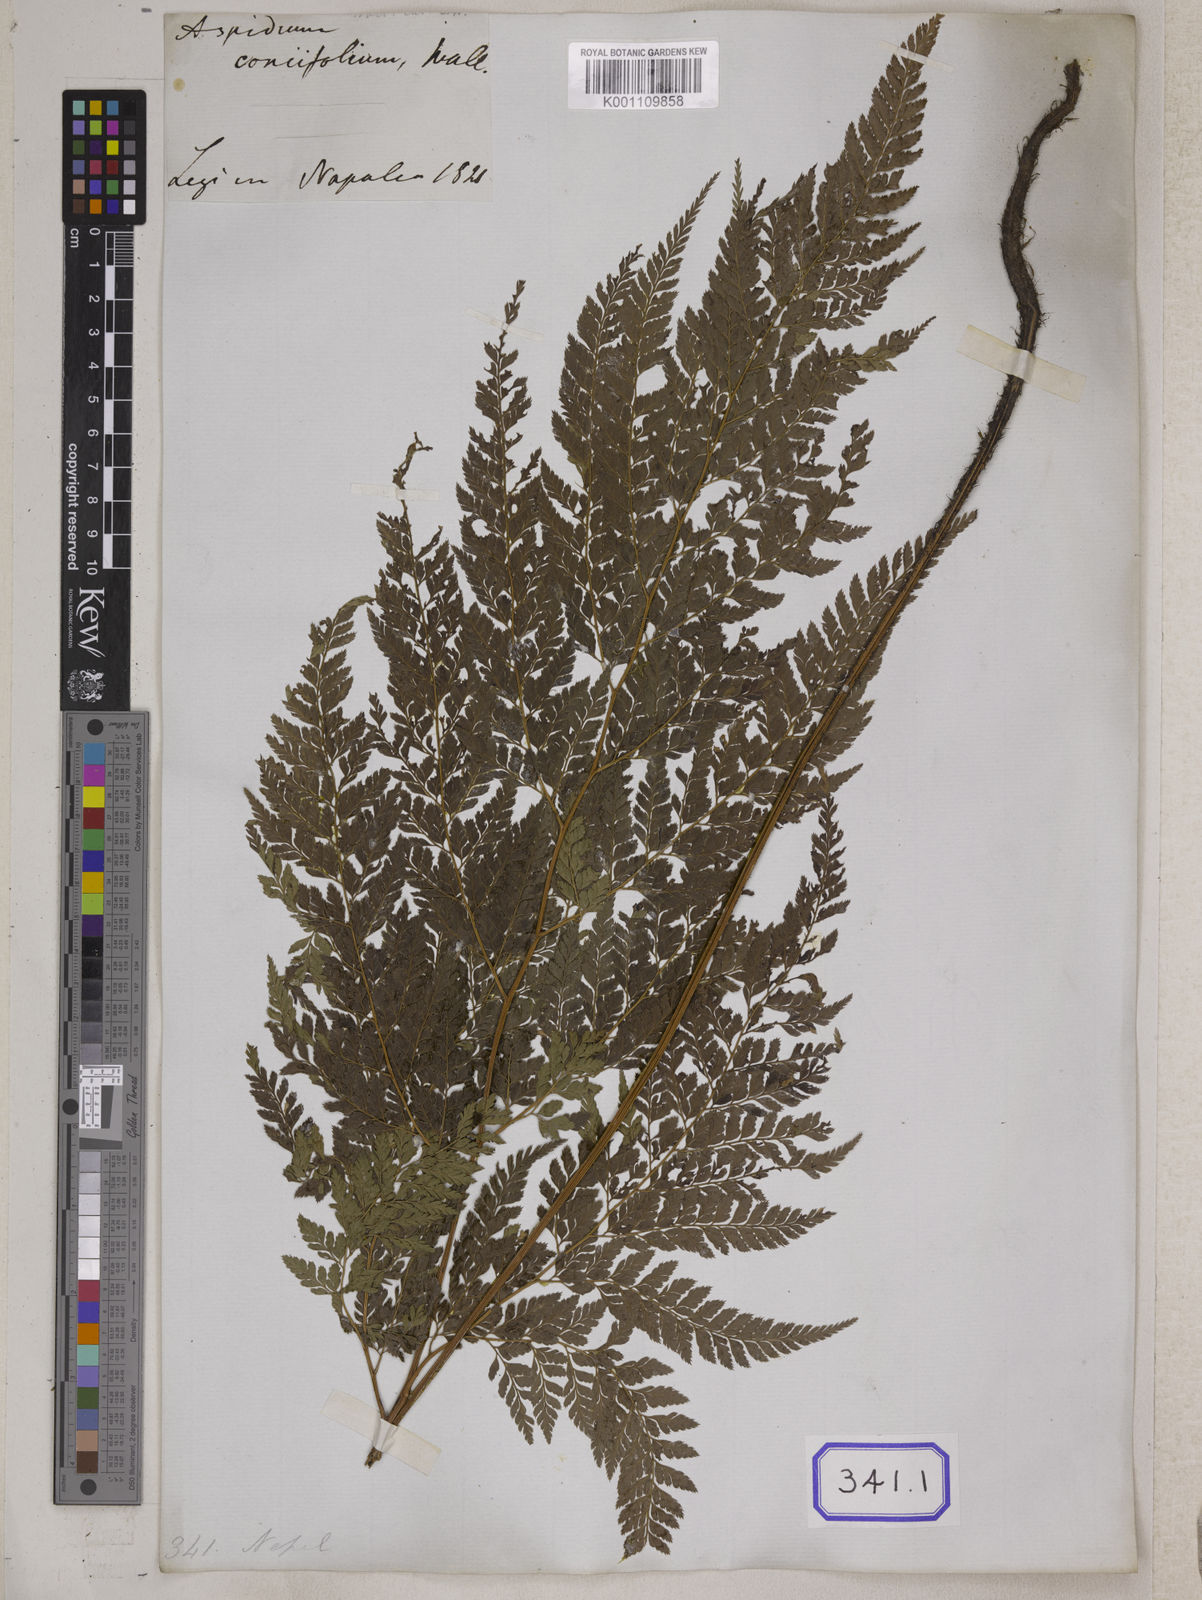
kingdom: Plantae
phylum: Tracheophyta
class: Polypodiopsida
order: Polypodiales
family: Dryopteridaceae
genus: Arachniodes
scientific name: Arachniodes coniifolia
